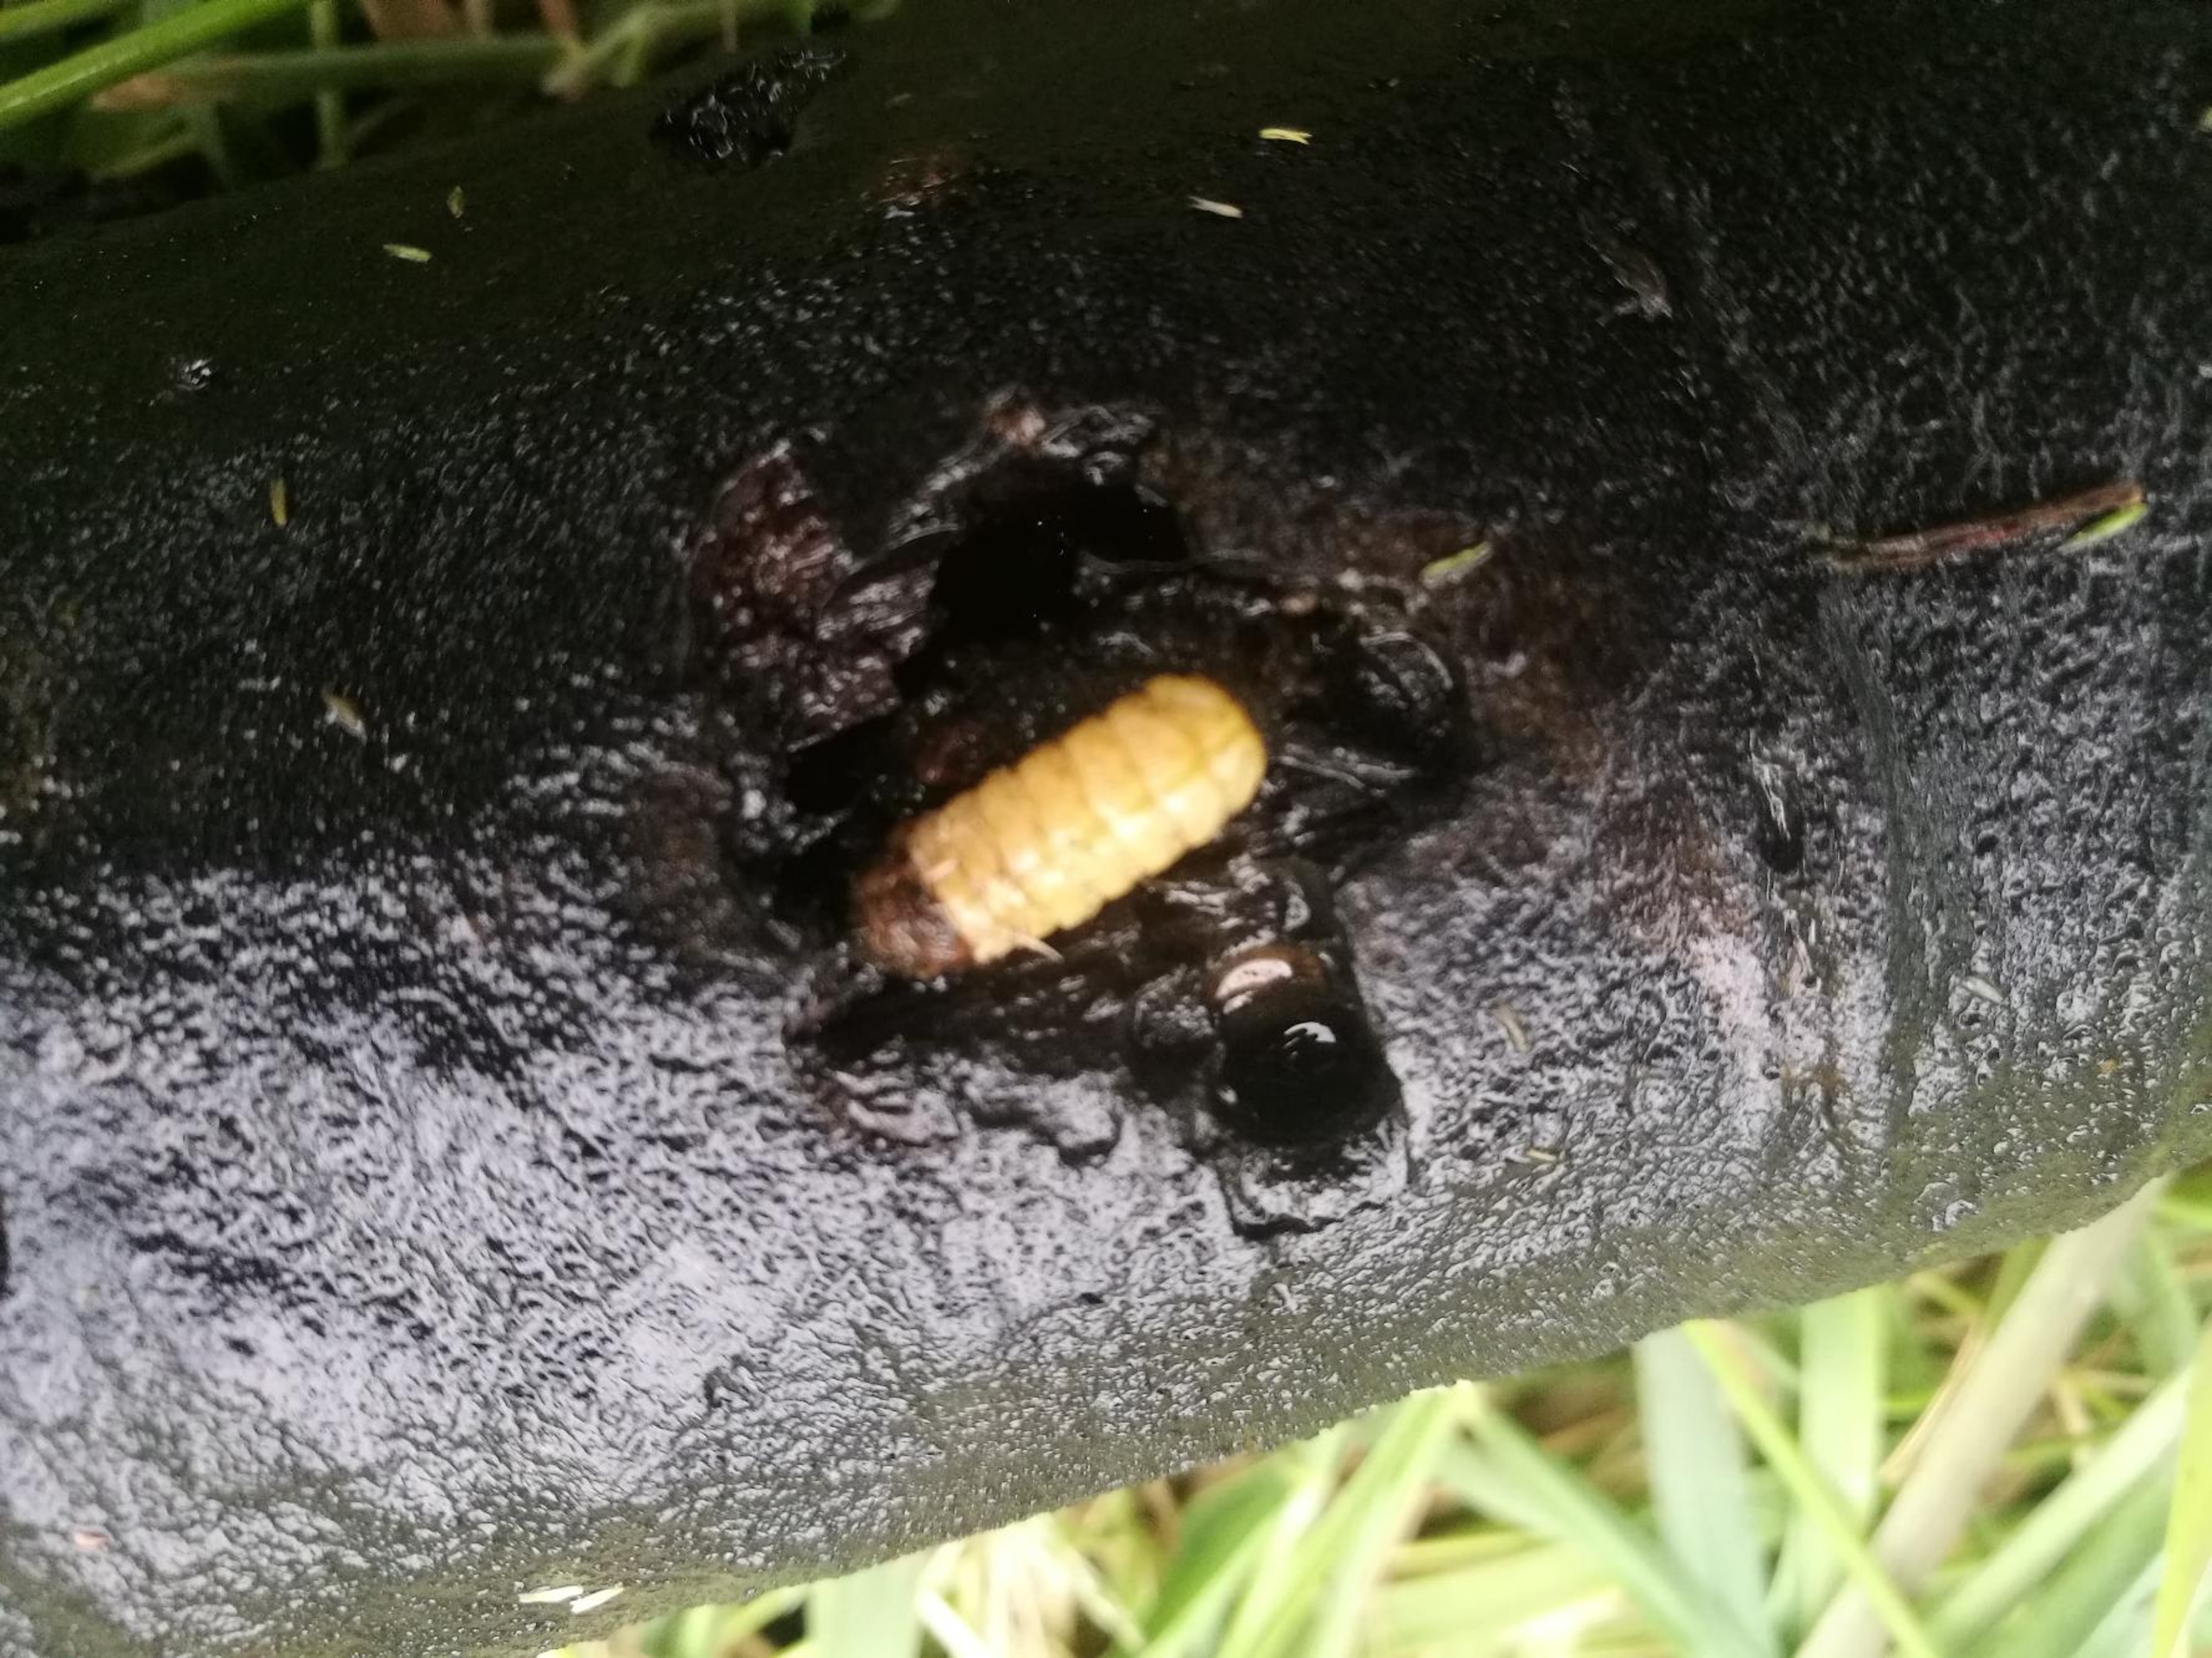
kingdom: Animalia
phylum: Arthropoda
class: Insecta
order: Trichoptera
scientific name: Trichoptera
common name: Vårfluer
